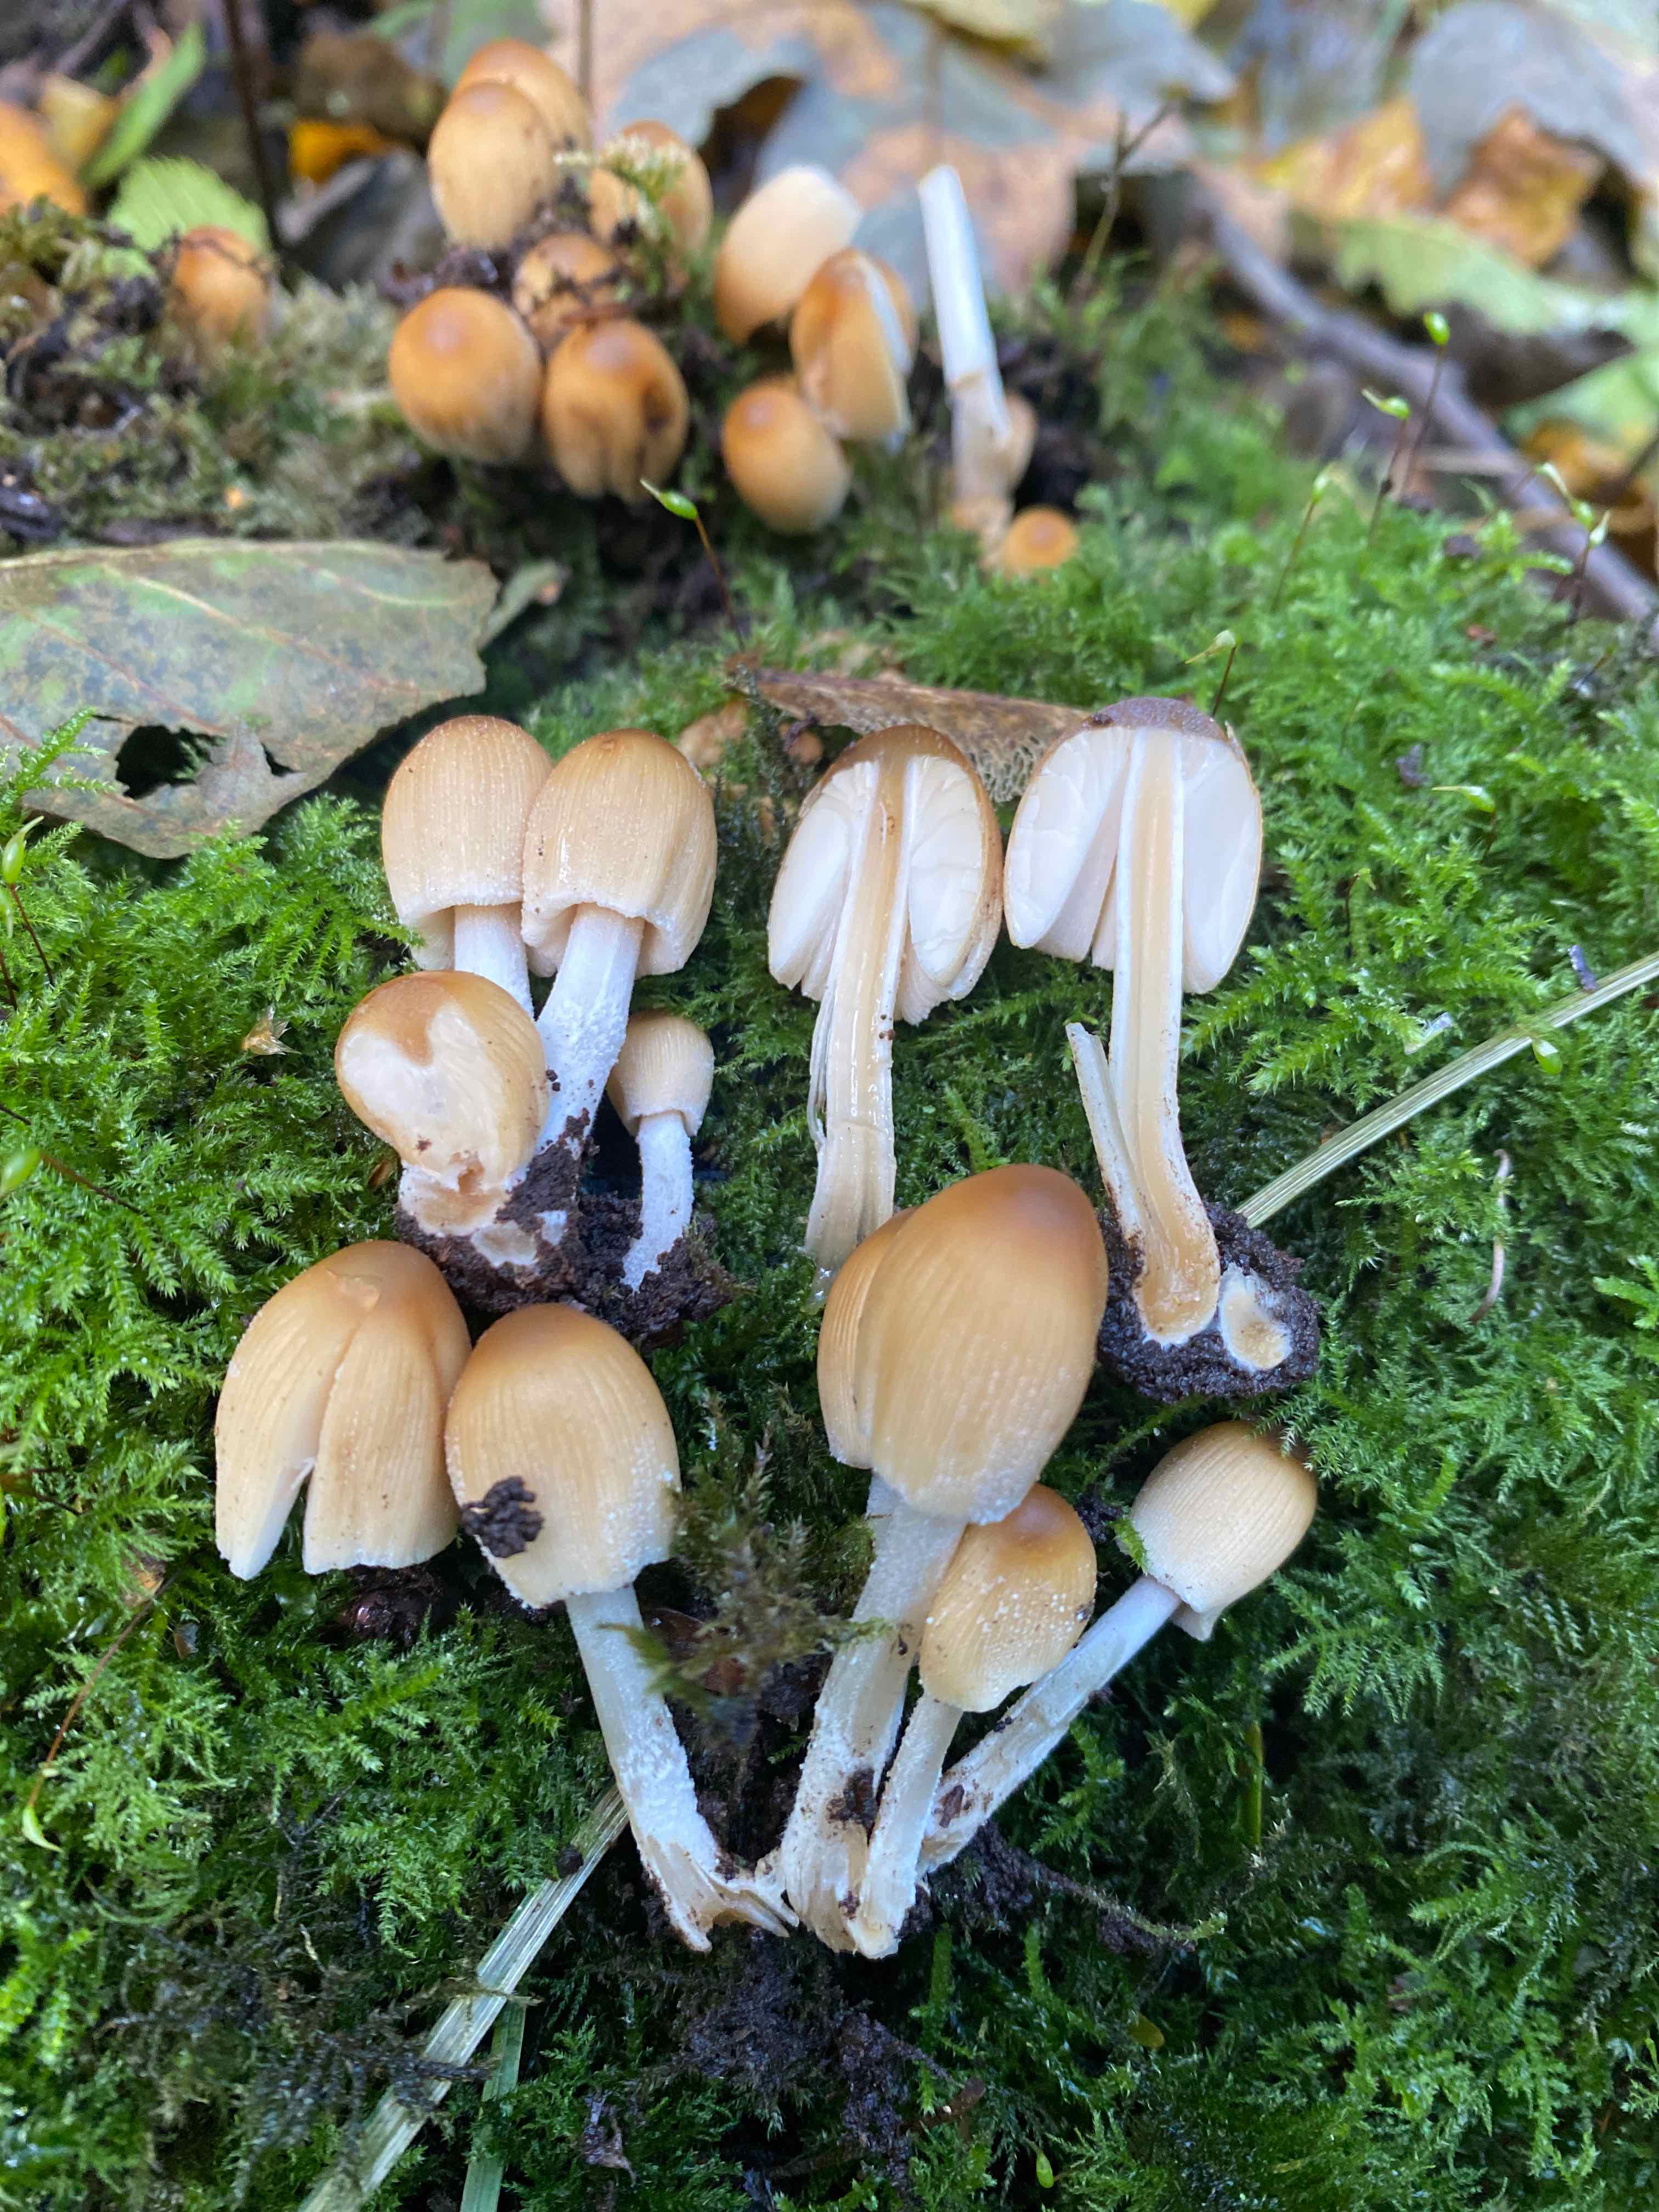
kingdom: Fungi
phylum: Basidiomycota
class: Agaricomycetes
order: Agaricales
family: Psathyrellaceae
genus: Coprinellus
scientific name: Coprinellus micaceus
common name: glimmer-blækhat
